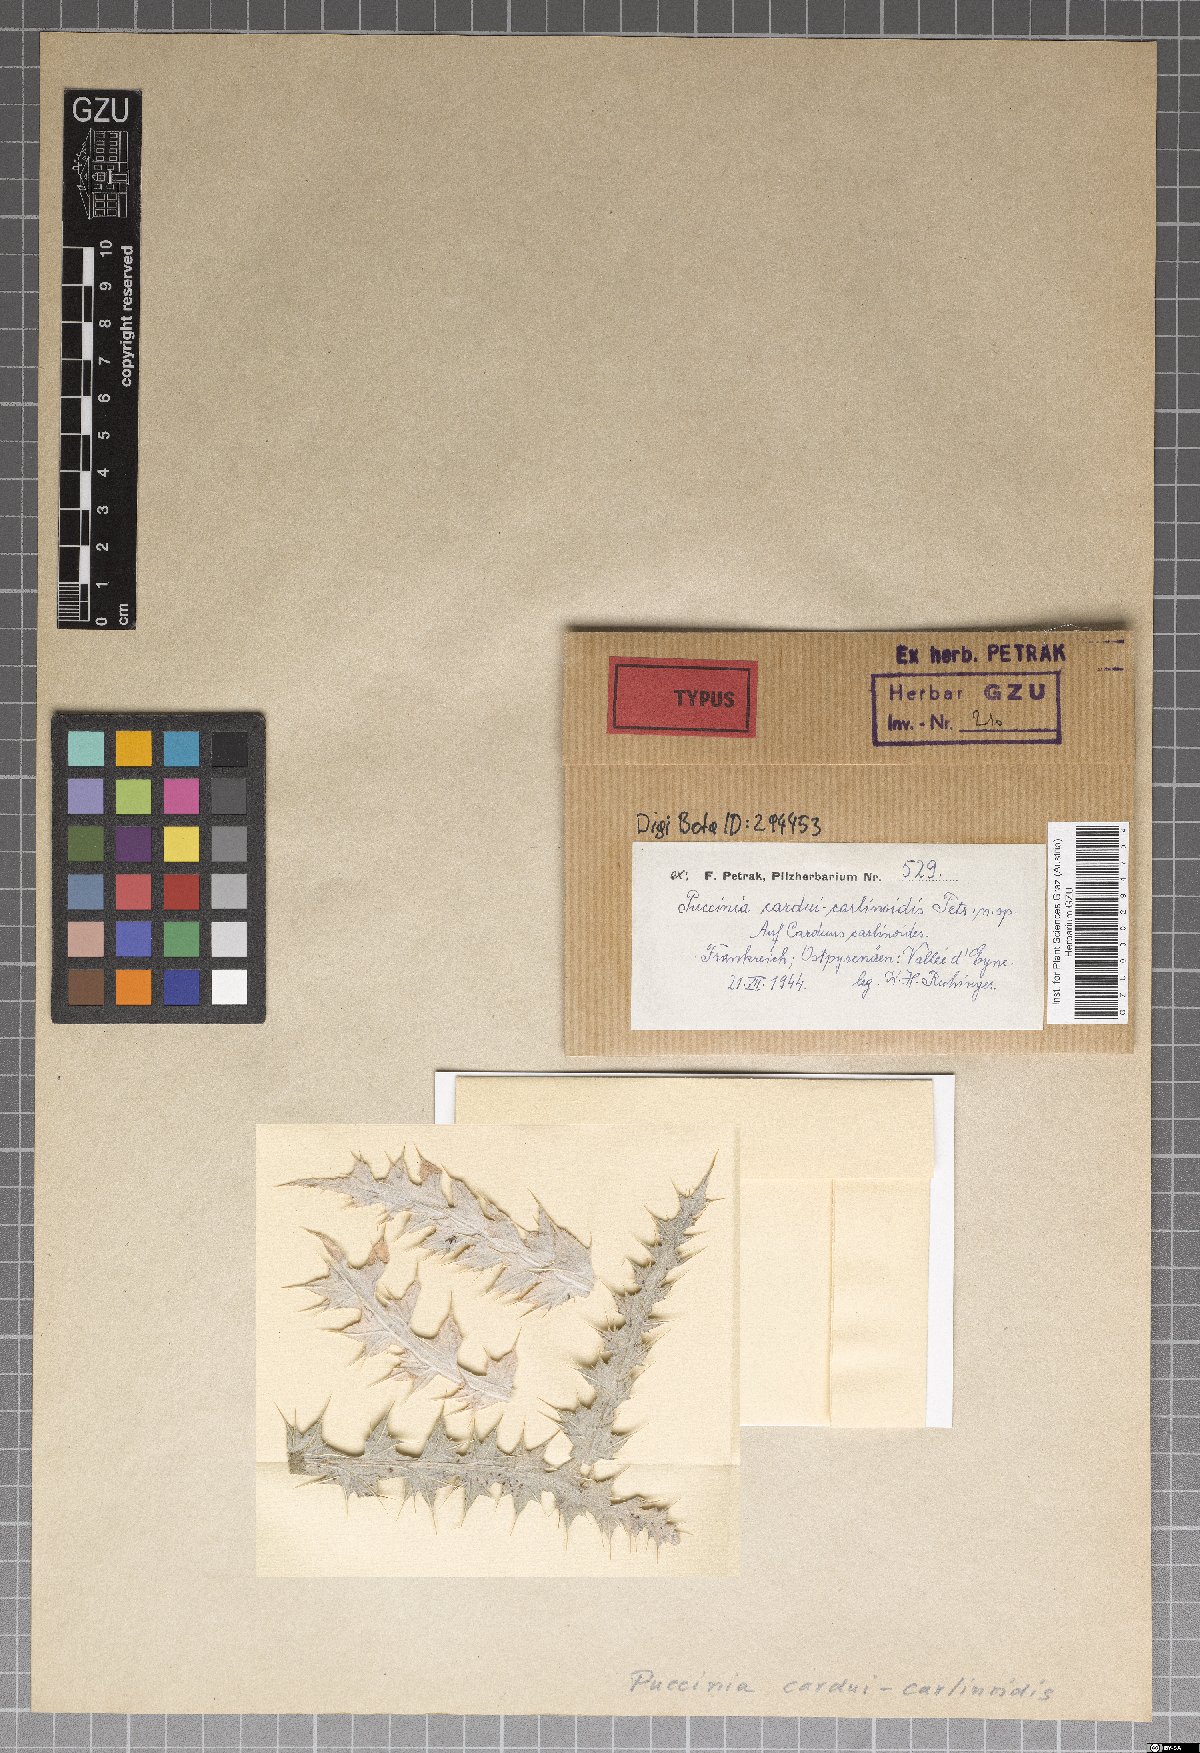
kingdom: Fungi
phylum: Basidiomycota
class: Pucciniomycetes
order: Pucciniales
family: Pucciniaceae
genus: Puccinia
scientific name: Puccinia cardui-carlinoidis
